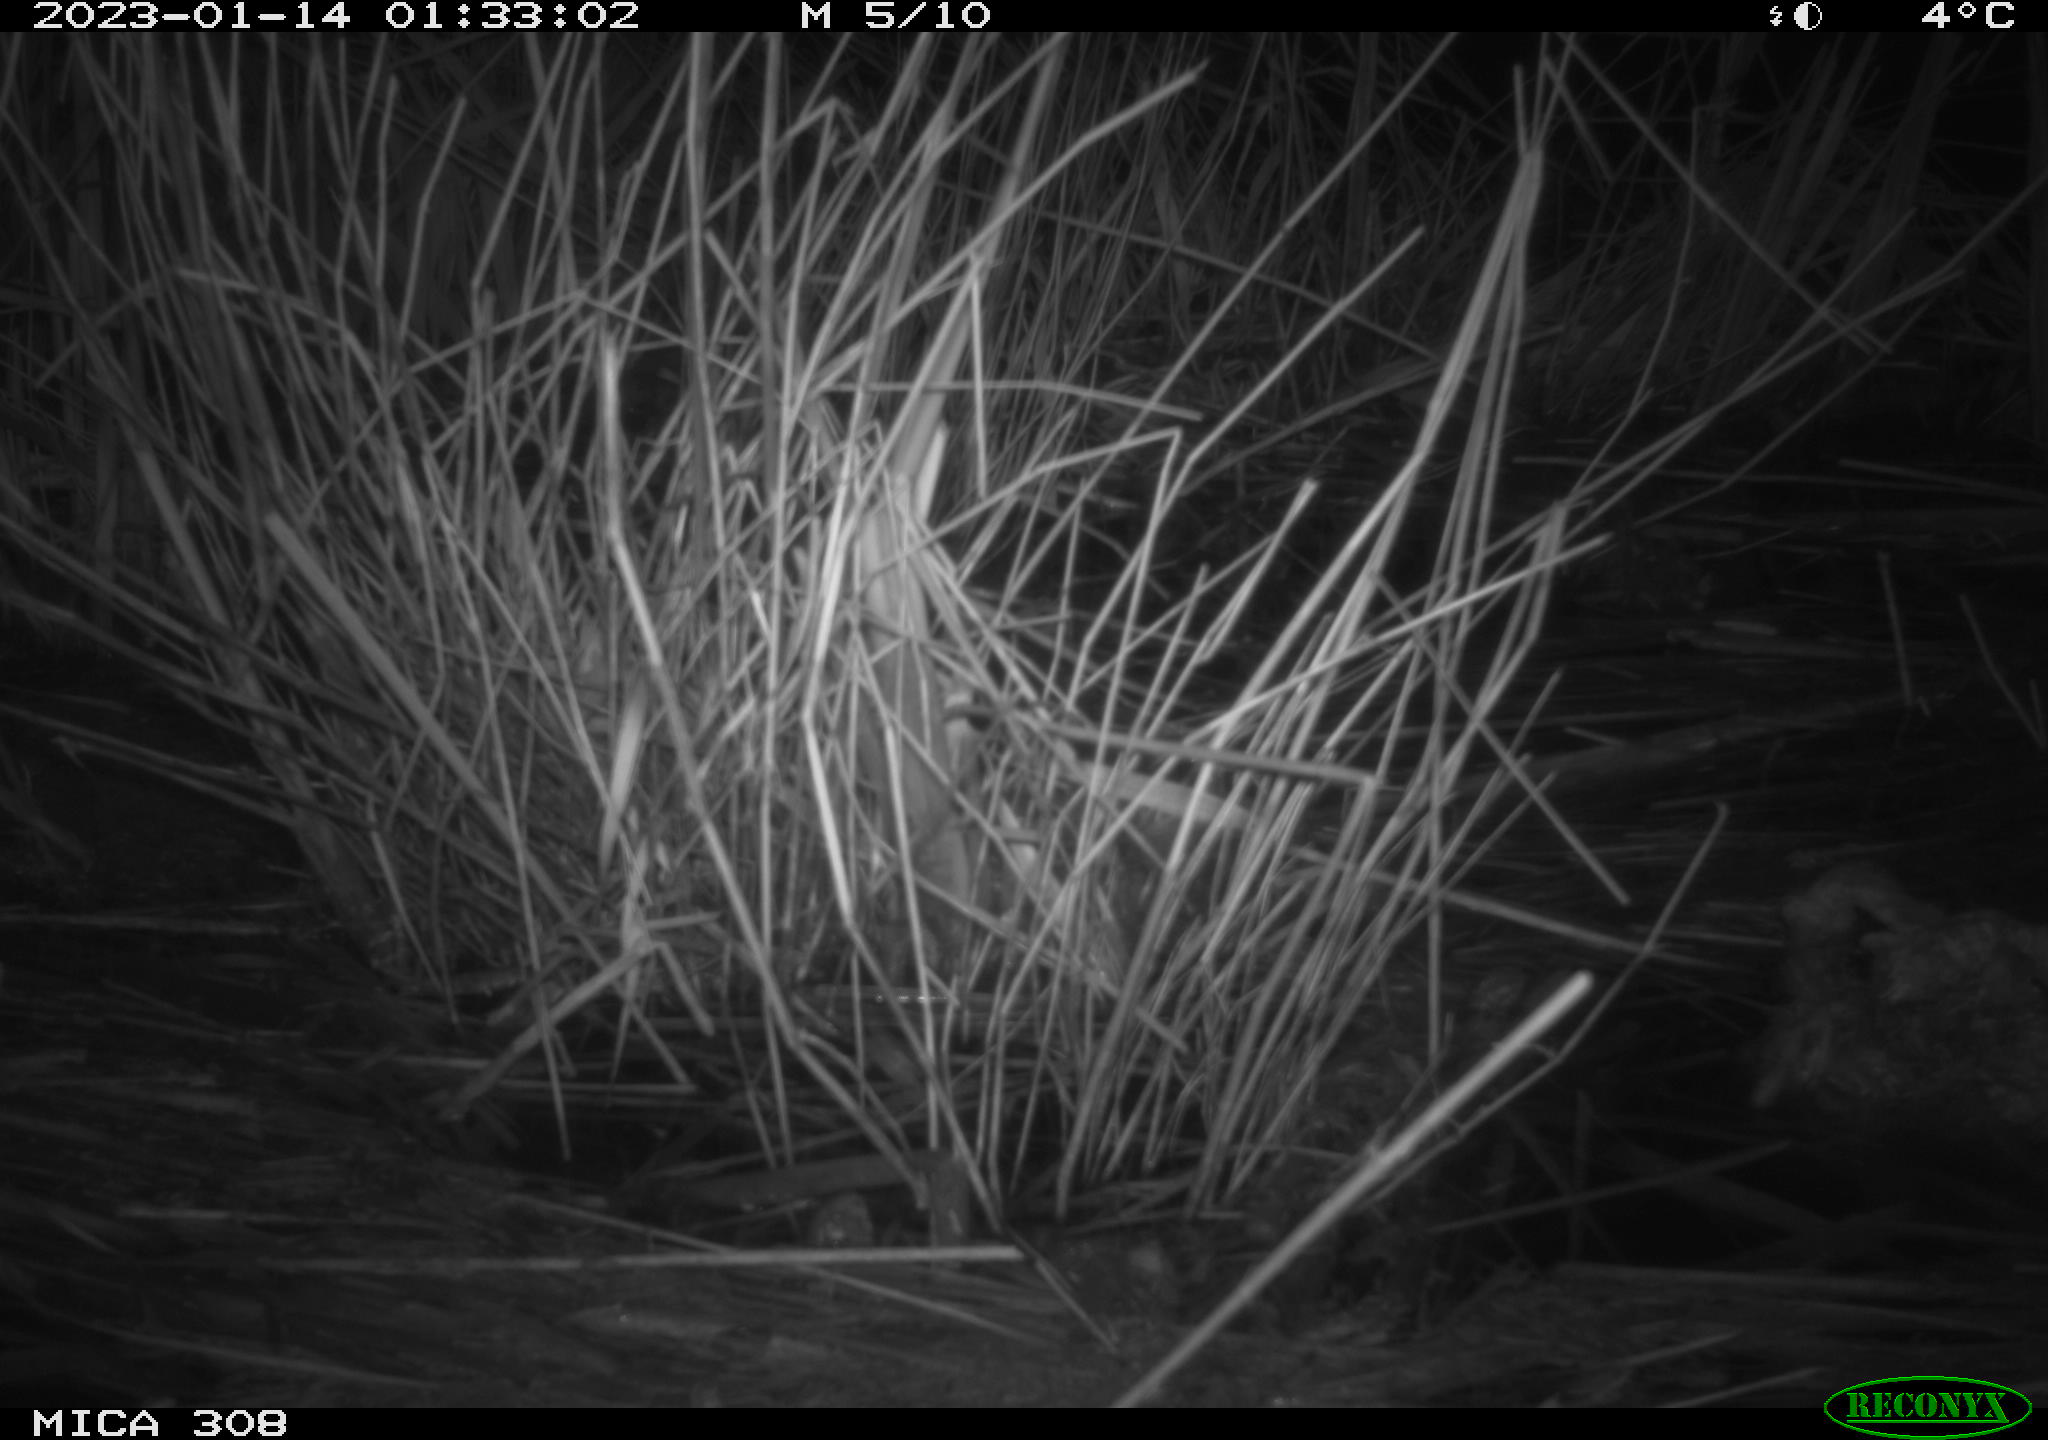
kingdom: Animalia
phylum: Chordata
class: Mammalia
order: Rodentia
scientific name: Rodentia
